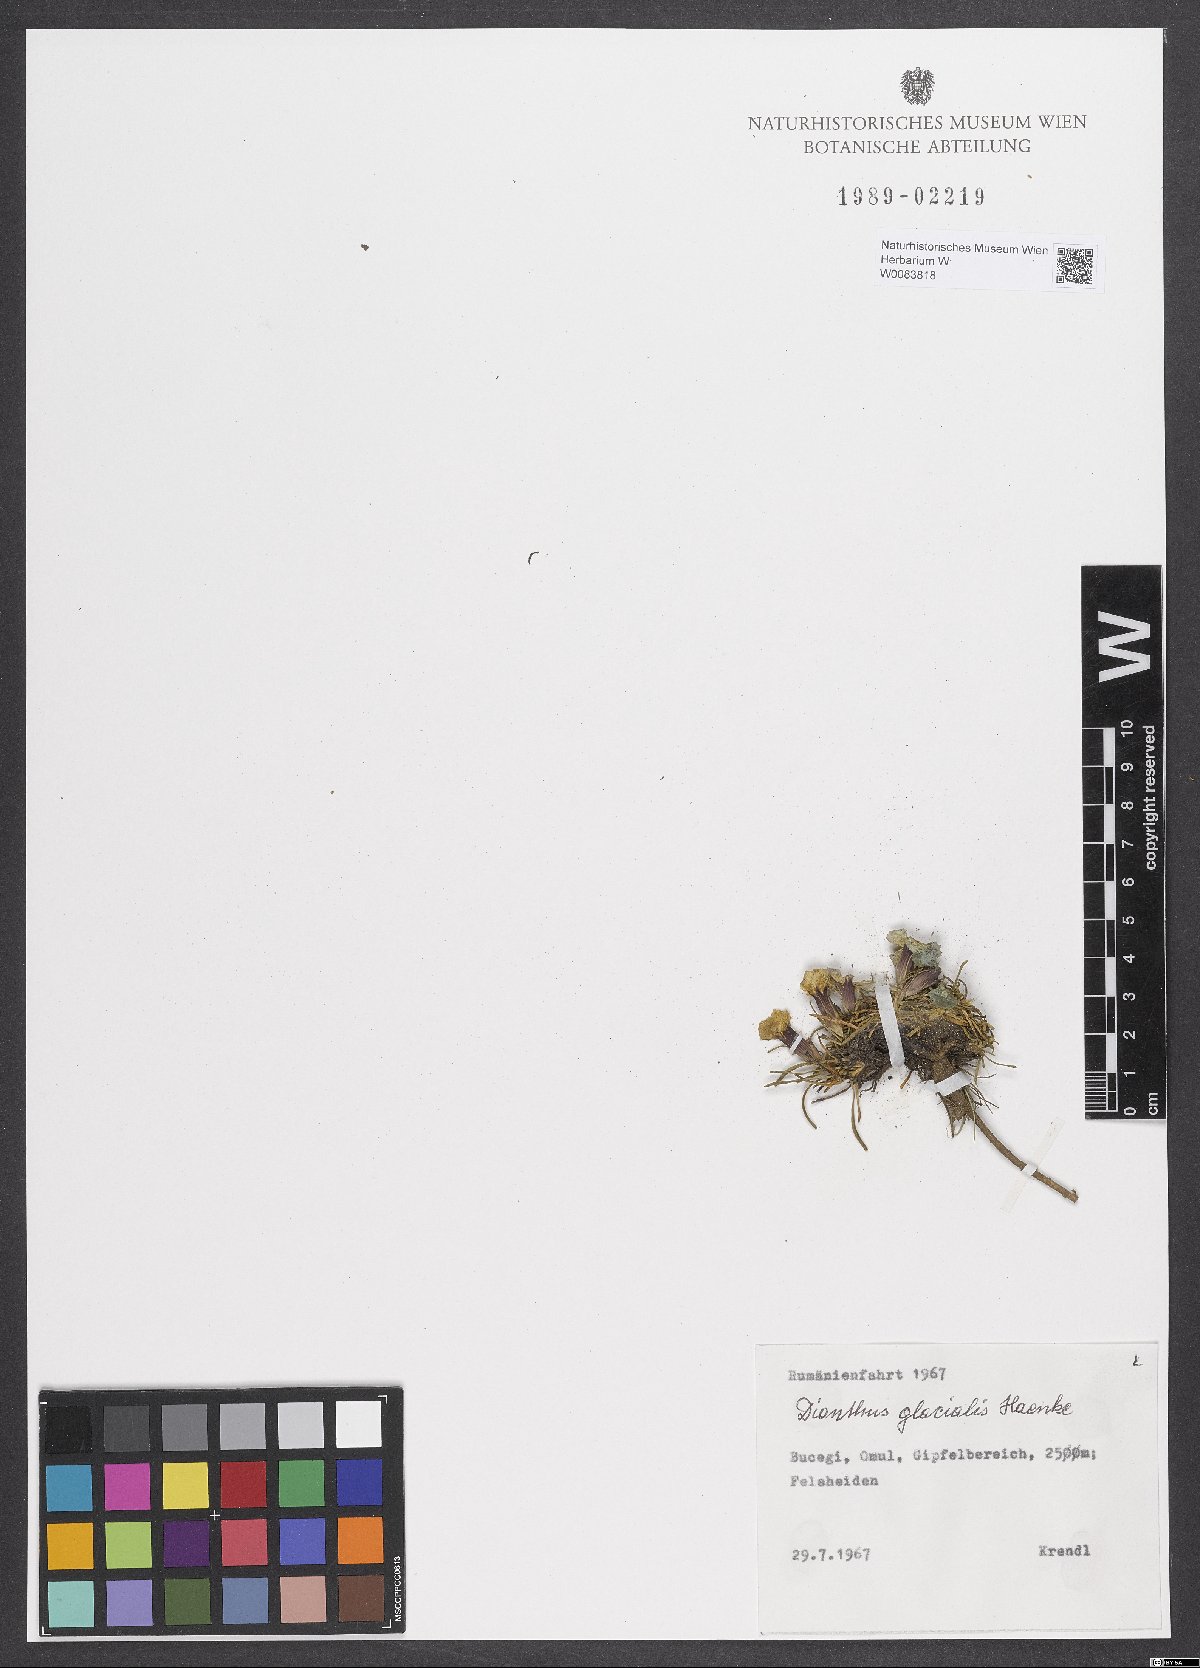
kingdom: Plantae
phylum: Tracheophyta
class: Magnoliopsida
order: Caryophyllales
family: Caryophyllaceae
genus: Dianthus
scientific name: Dianthus glacialis
